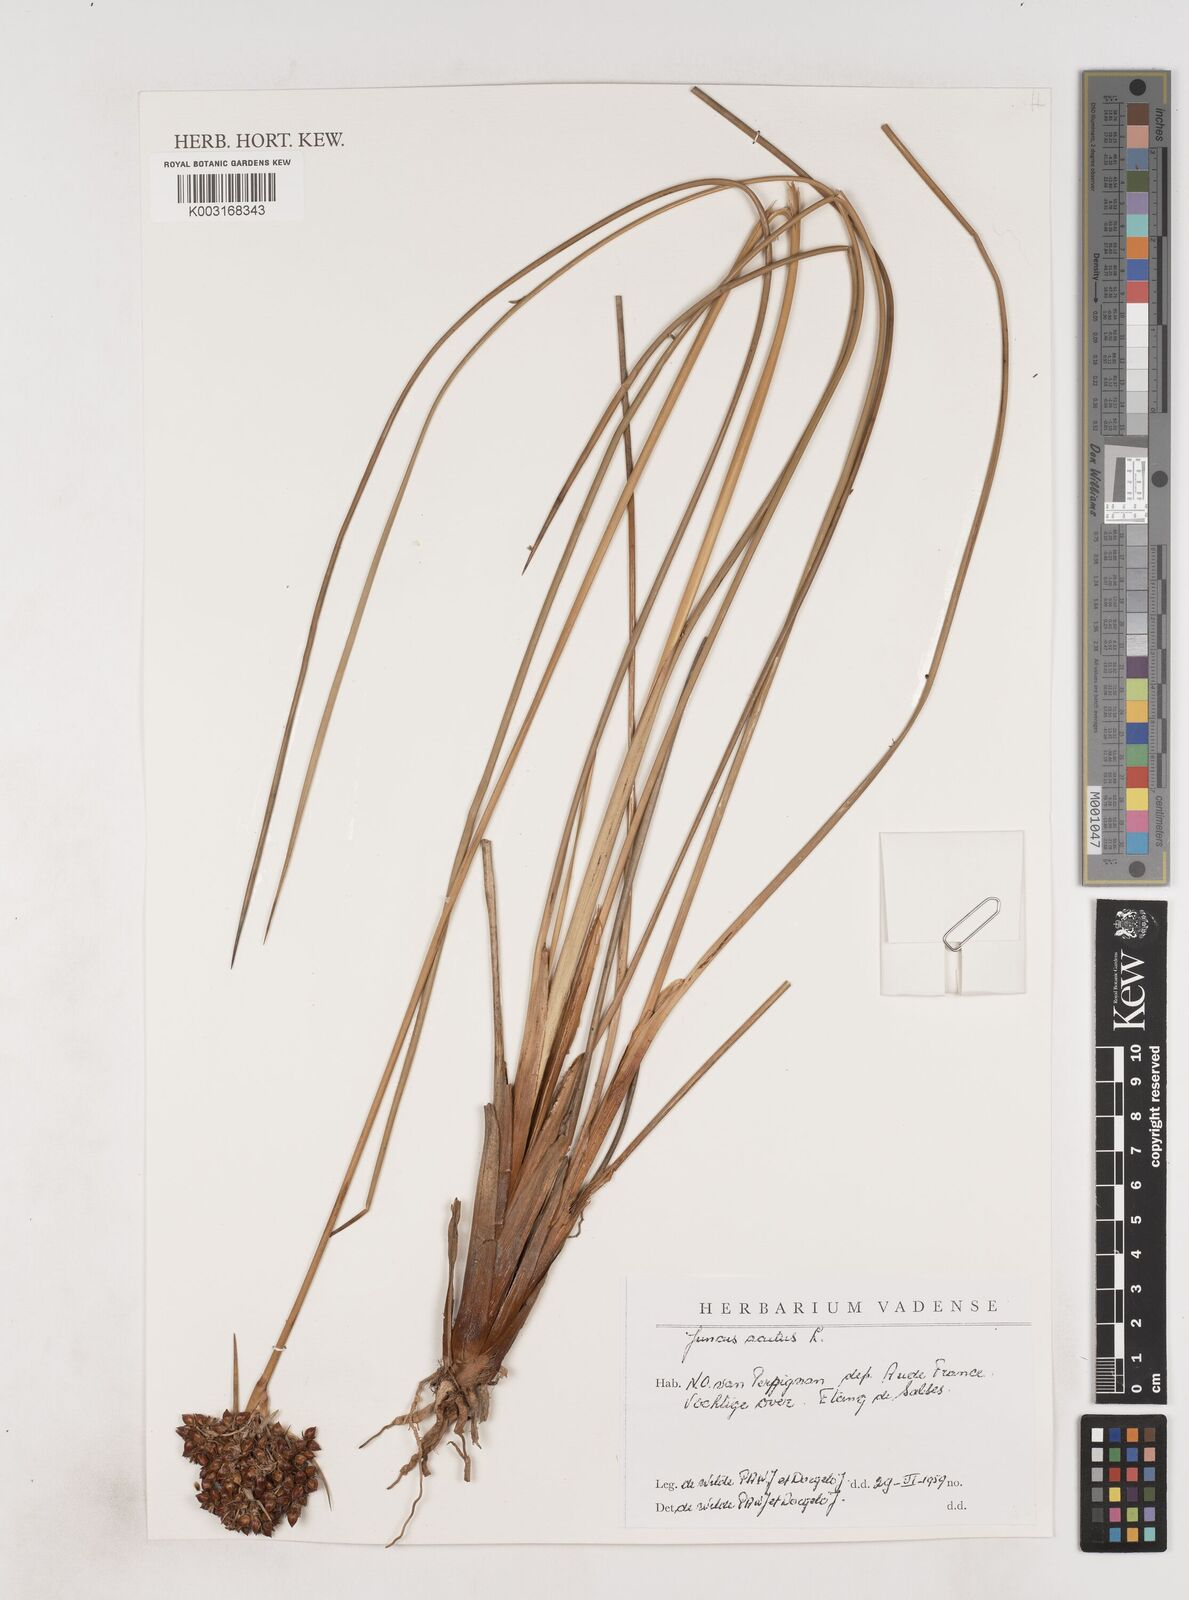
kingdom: Plantae
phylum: Tracheophyta
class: Liliopsida
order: Poales
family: Juncaceae
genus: Juncus
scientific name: Juncus acutus
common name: Sharp rush
